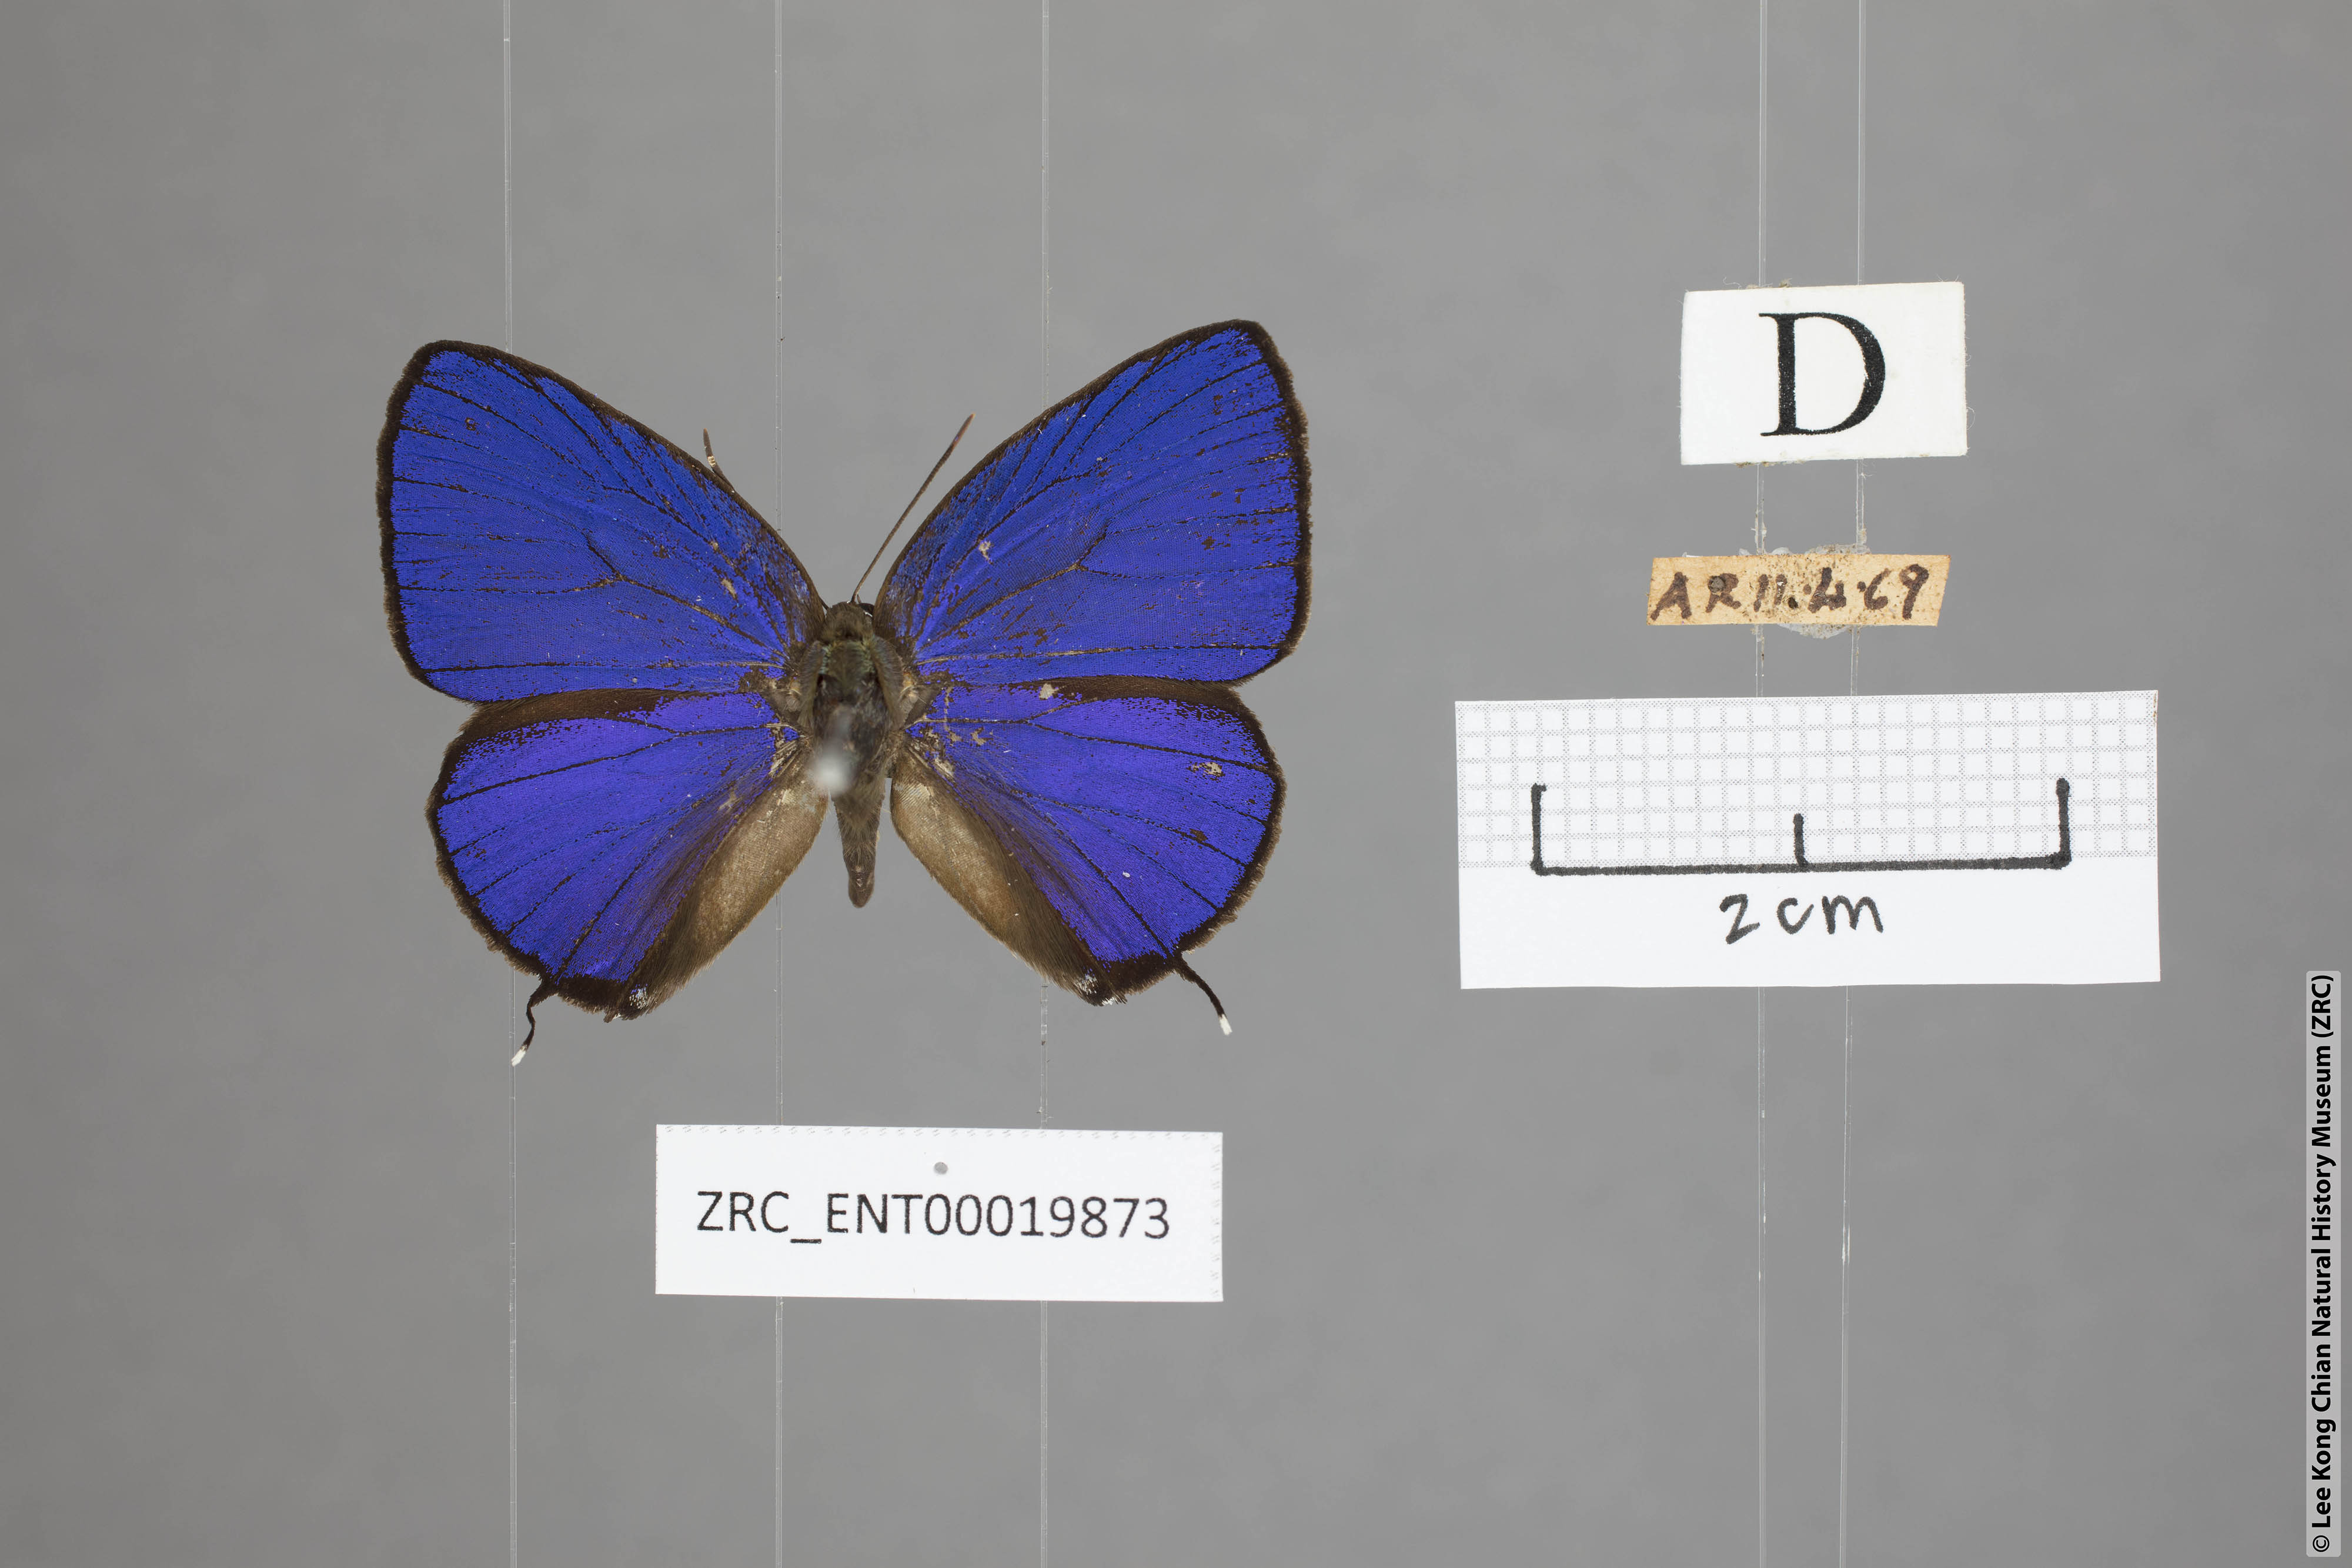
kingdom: Animalia
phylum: Arthropoda
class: Insecta
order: Lepidoptera
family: Lycaenidae
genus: Arhopala
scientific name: Arhopala sublustris
